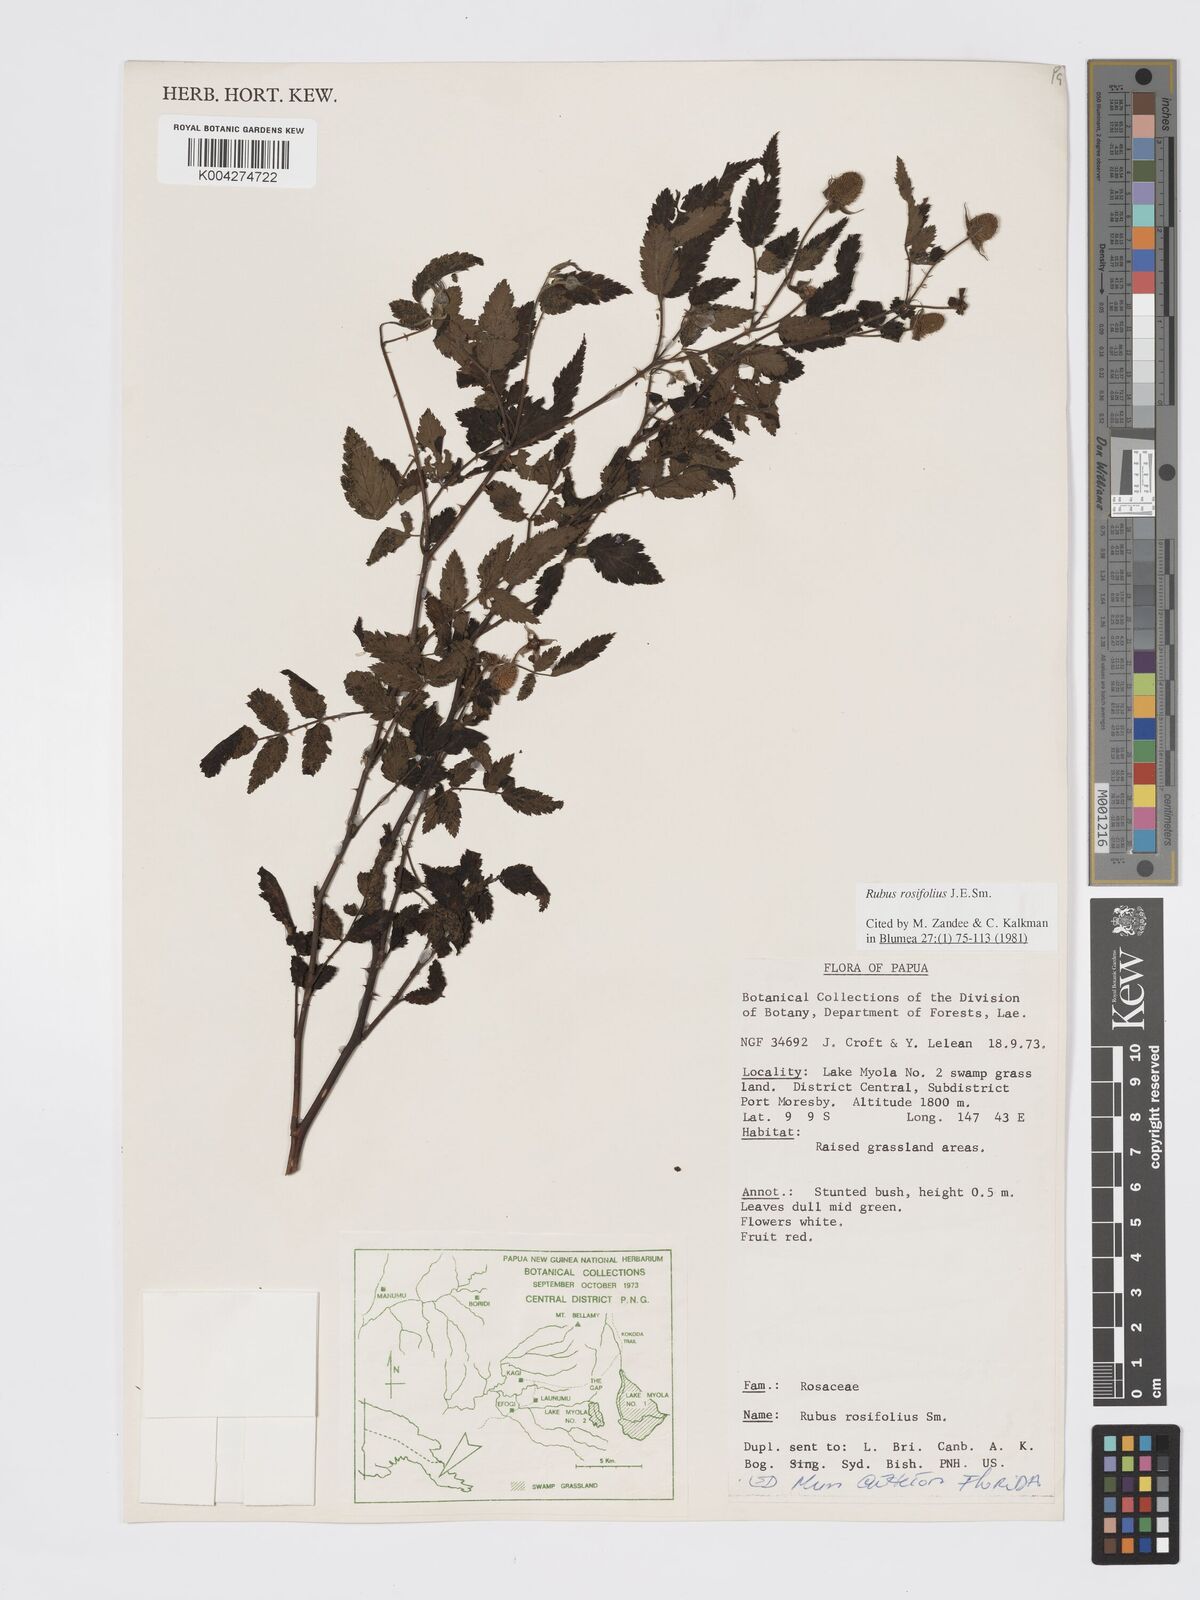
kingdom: Plantae
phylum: Tracheophyta
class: Magnoliopsida
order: Rosales
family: Rosaceae
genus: Rubus
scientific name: Rubus
